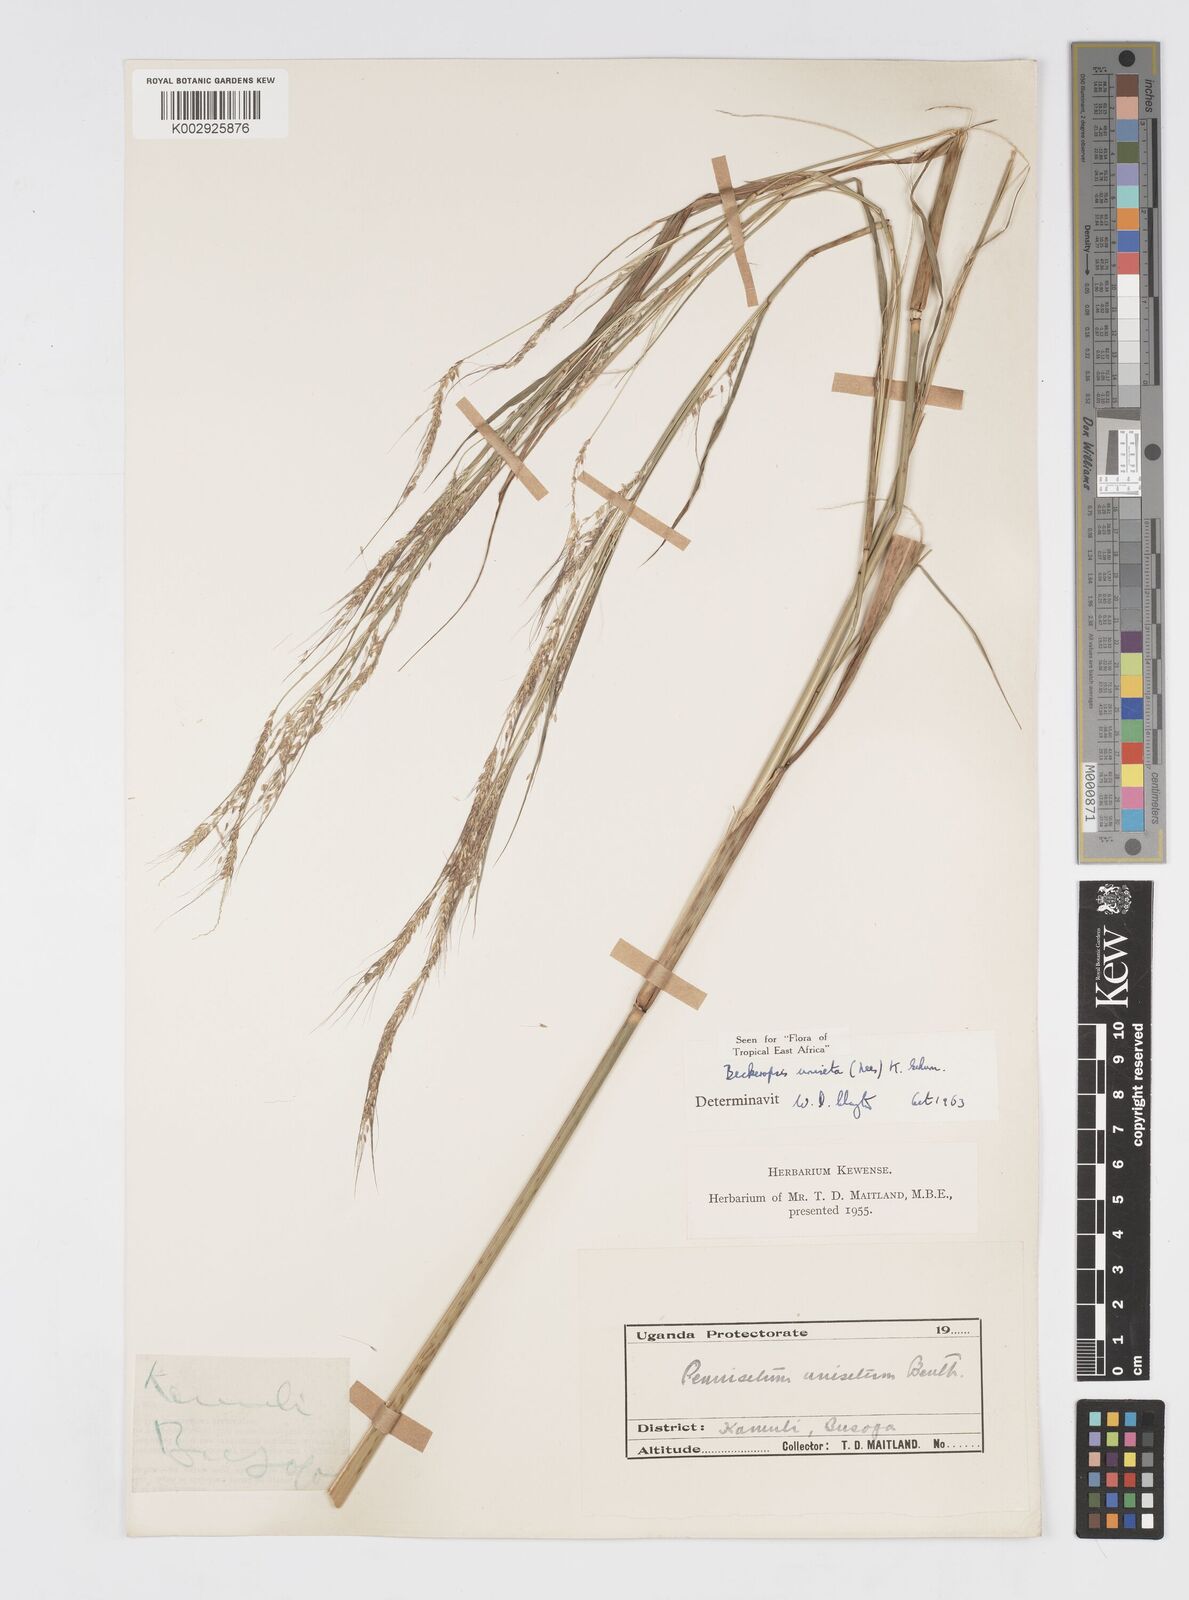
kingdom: Plantae
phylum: Tracheophyta
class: Liliopsida
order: Poales
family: Poaceae
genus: Cenchrus
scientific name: Cenchrus unisetus
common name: Natal grass
